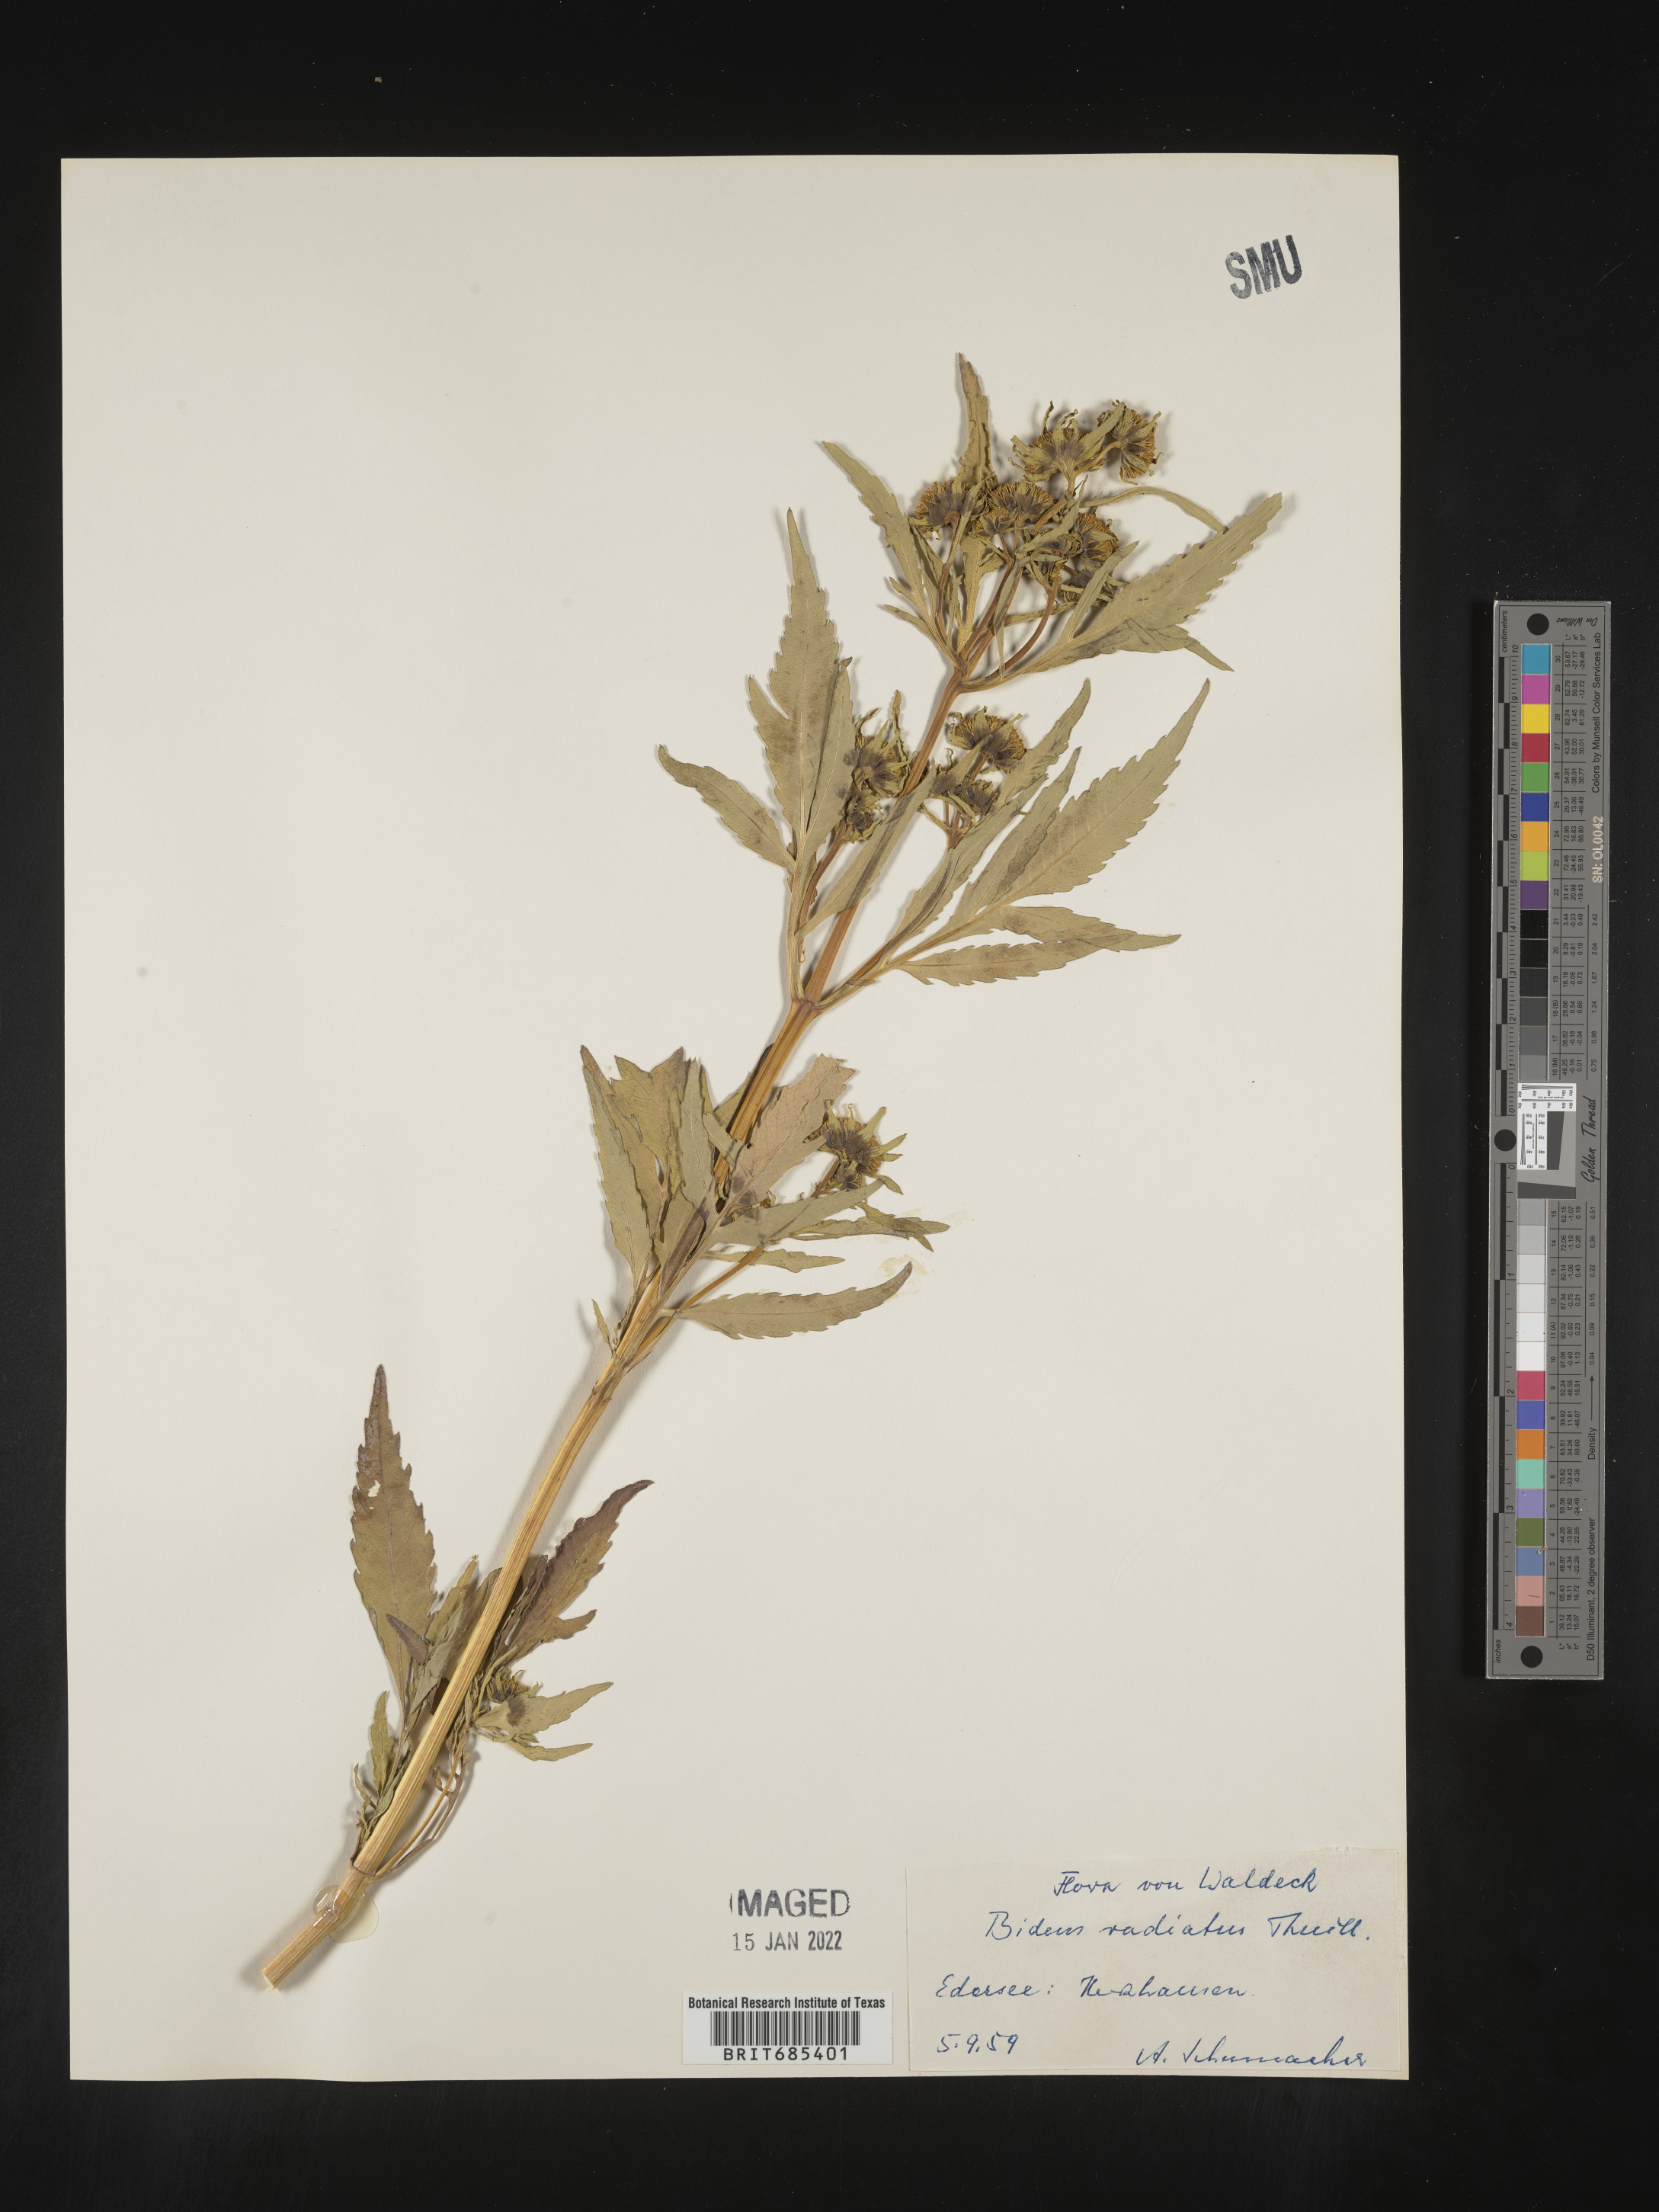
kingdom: Plantae
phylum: Tracheophyta
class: Magnoliopsida
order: Asterales
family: Asteraceae
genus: Bidens
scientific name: Bidens
